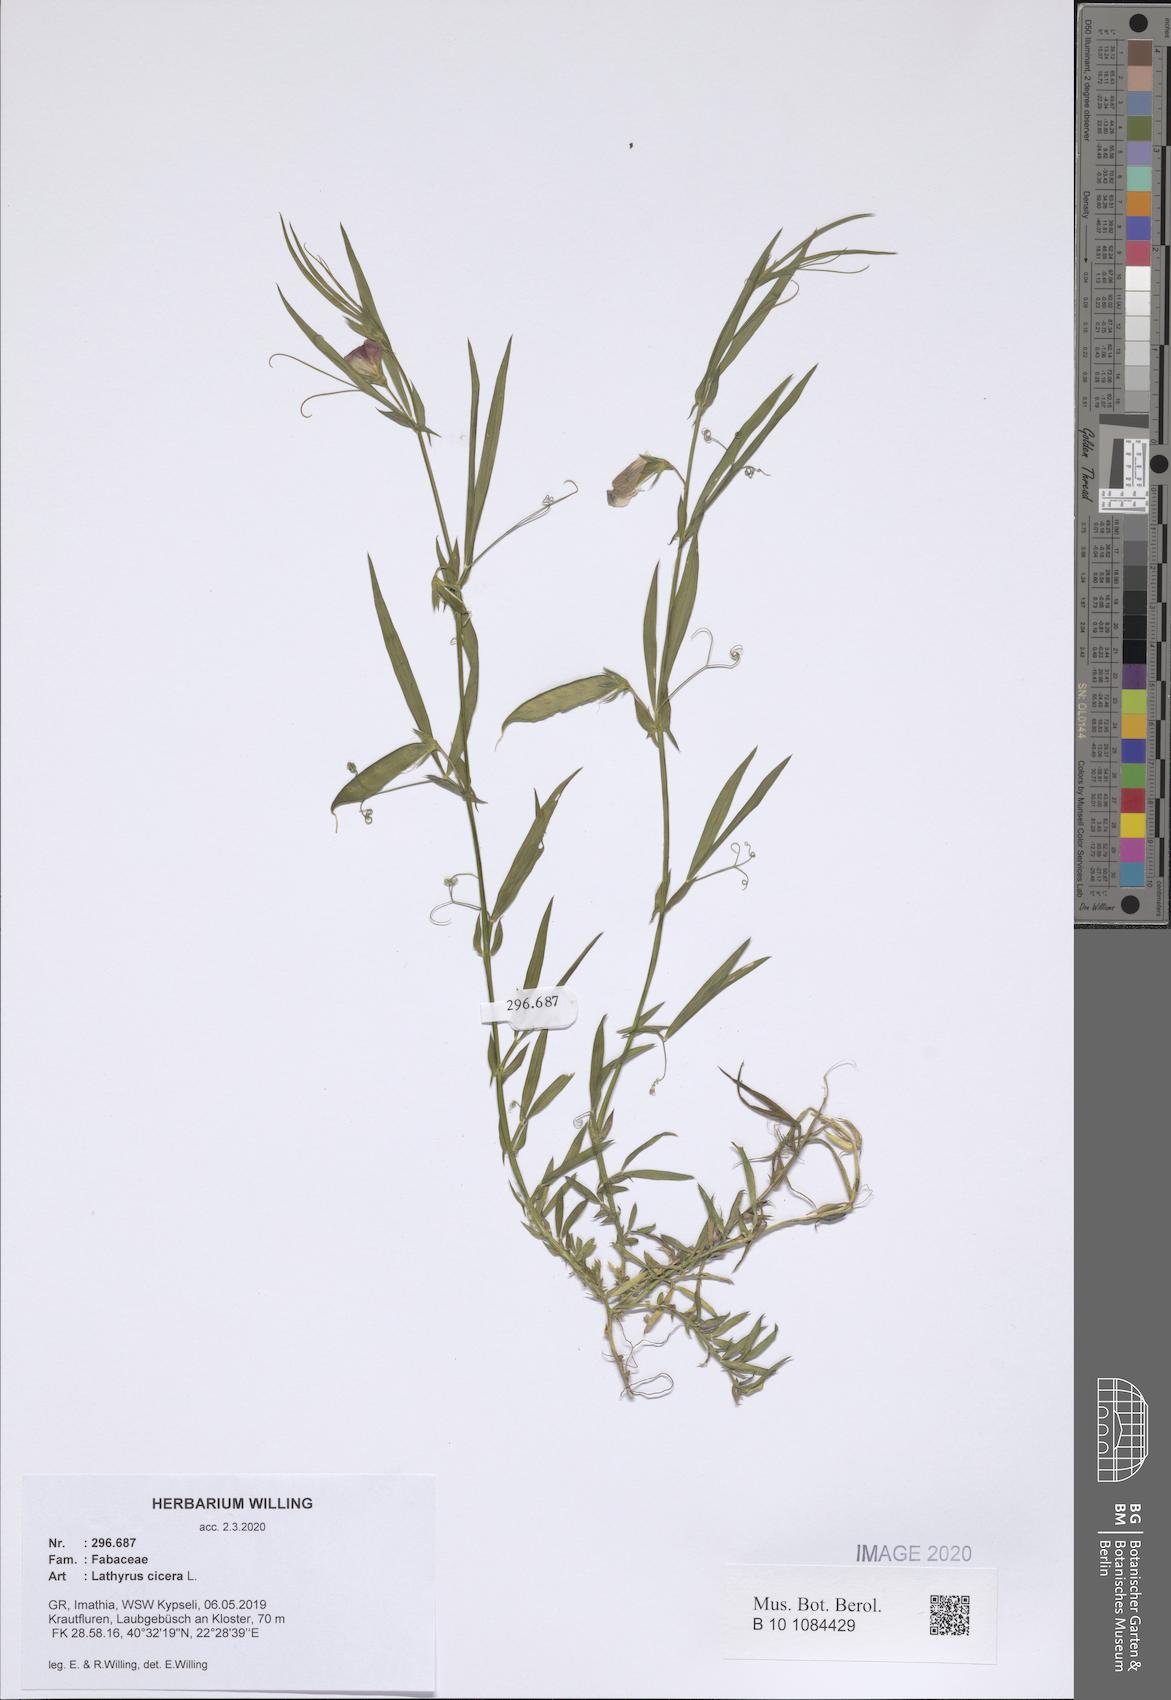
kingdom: Plantae
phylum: Tracheophyta
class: Magnoliopsida
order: Fabales
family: Fabaceae
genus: Lathyrus
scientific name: Lathyrus cicera
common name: Red vetchling
